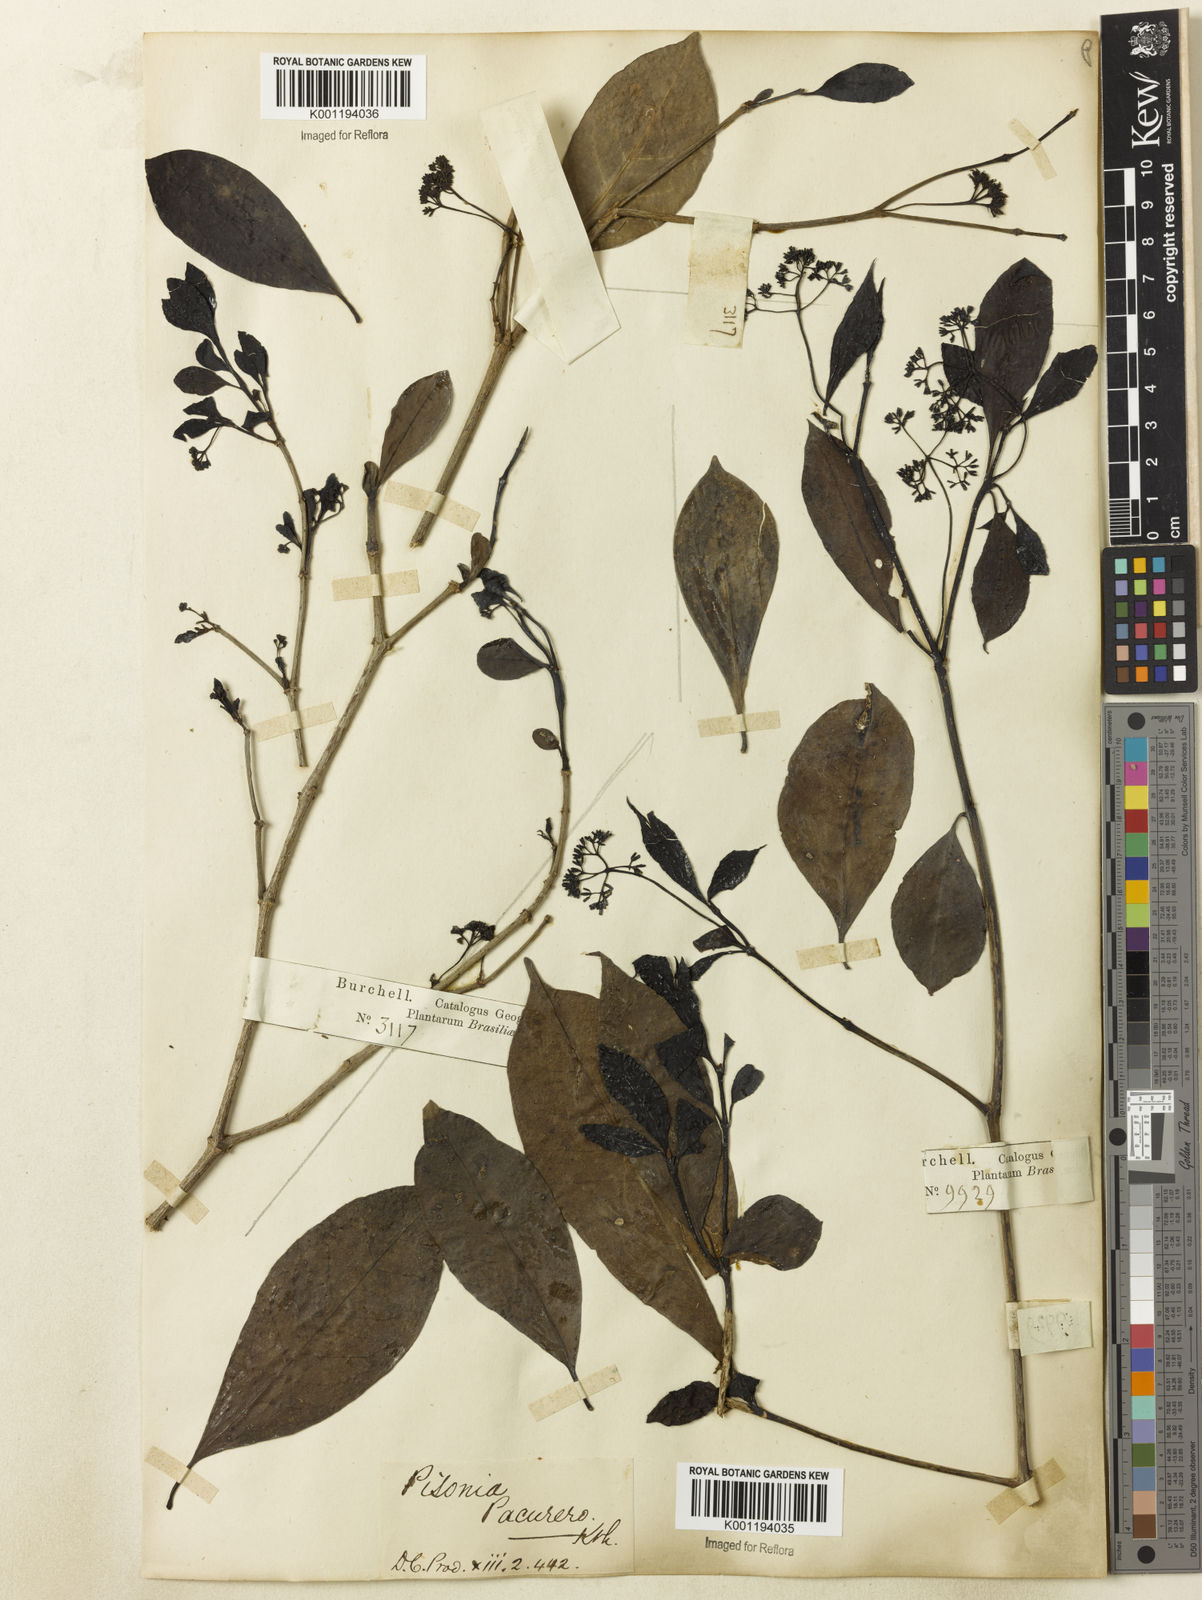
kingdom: Plantae
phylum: Tracheophyta
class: Magnoliopsida
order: Caryophyllales
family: Nyctaginaceae
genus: Guapira
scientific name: Guapira
